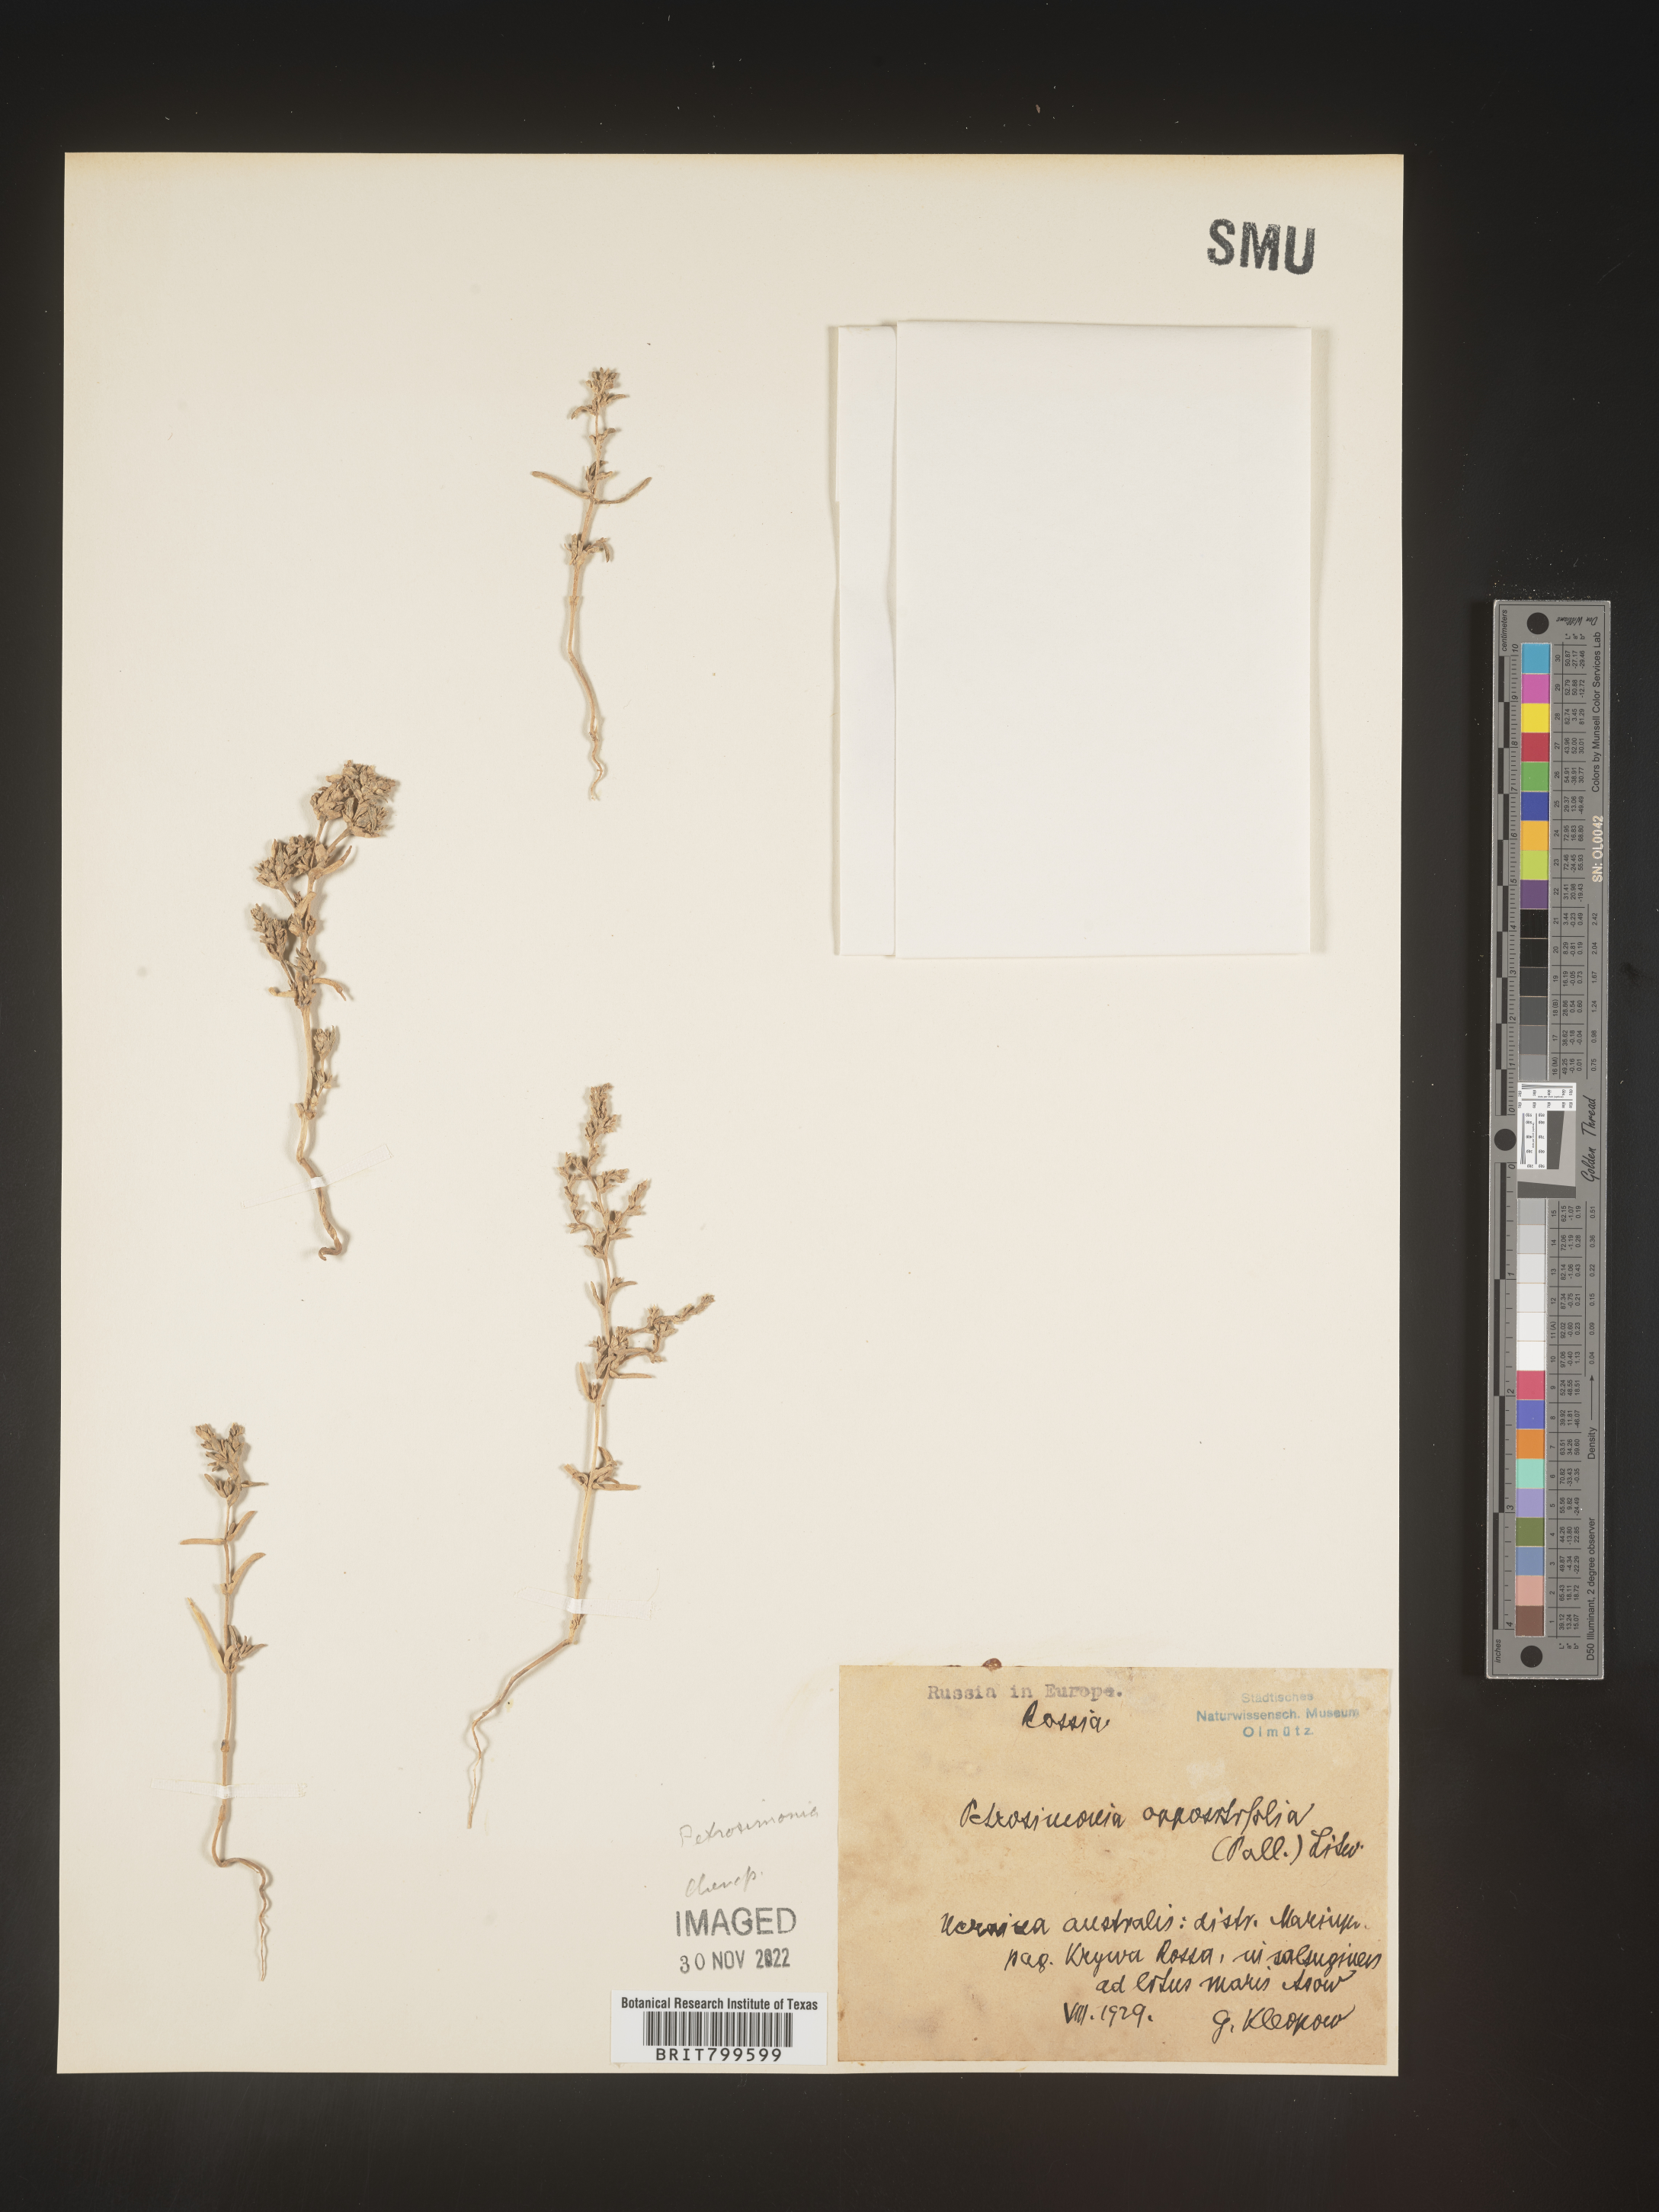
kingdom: Plantae
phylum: Tracheophyta
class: Magnoliopsida
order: Caryophyllales
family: Amaranthaceae
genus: Petrosimonia
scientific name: Petrosimonia
